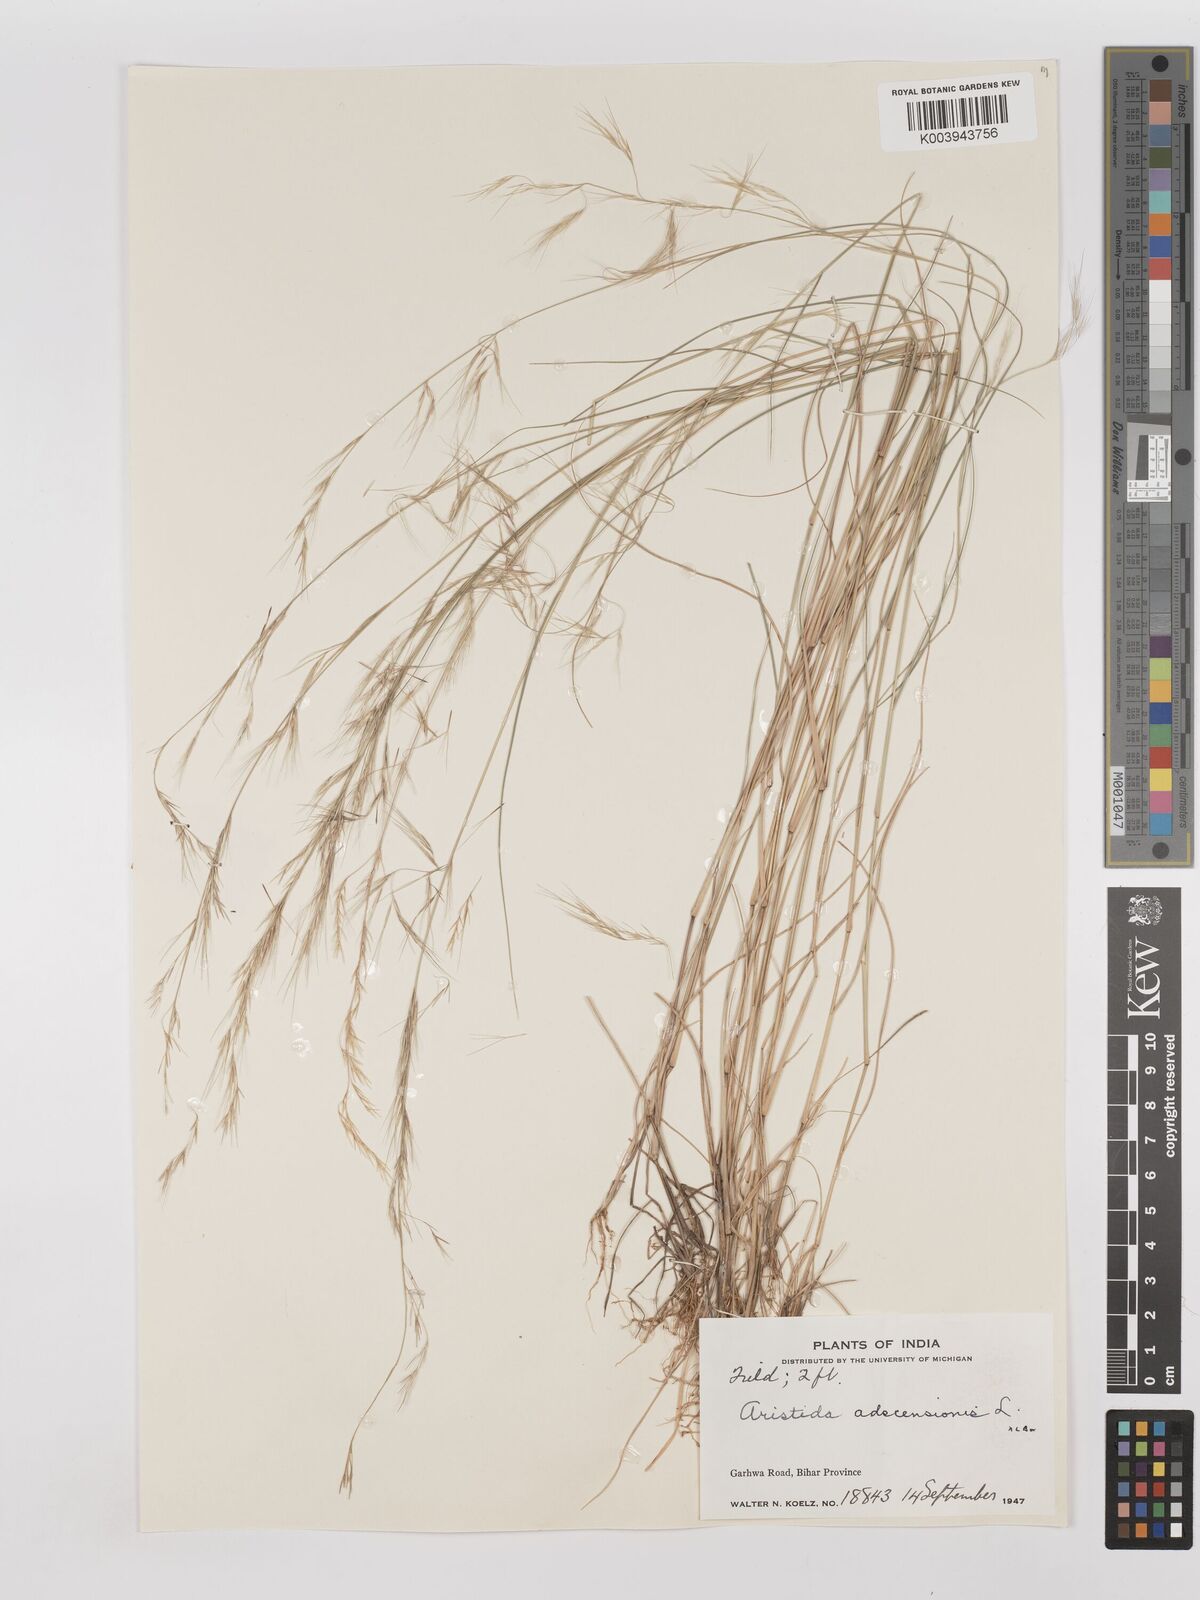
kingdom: Plantae
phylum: Tracheophyta
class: Liliopsida
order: Poales
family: Poaceae
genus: Aristida
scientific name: Aristida adscensionis
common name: Sixweeks threeawn
